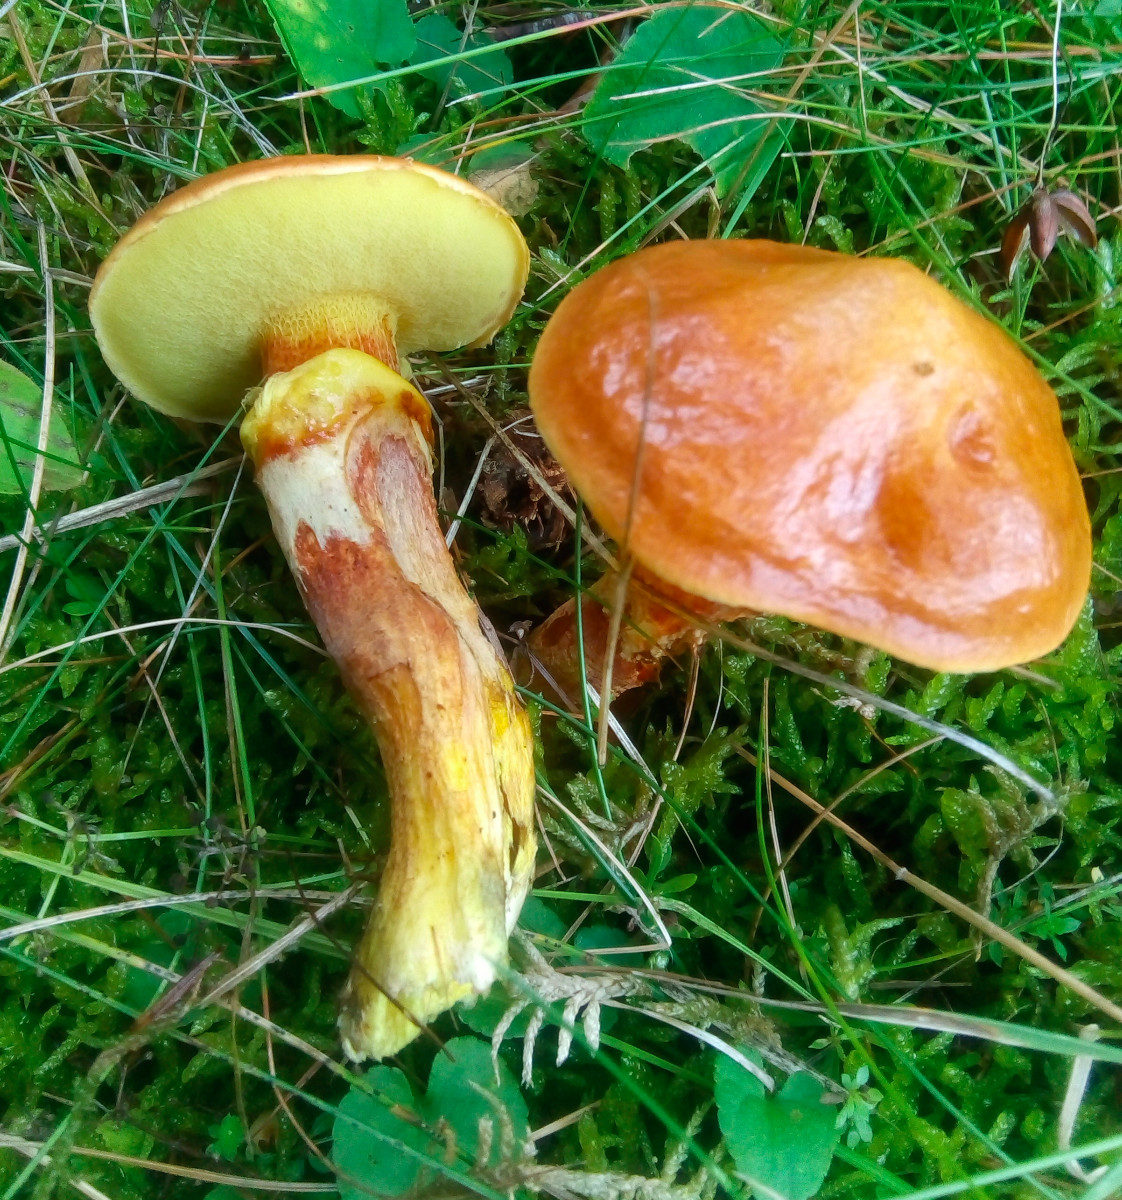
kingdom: Fungi
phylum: Basidiomycota
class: Agaricomycetes
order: Boletales
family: Suillaceae
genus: Suillus
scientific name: Suillus grevillei
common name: lærke-slimrørhat
